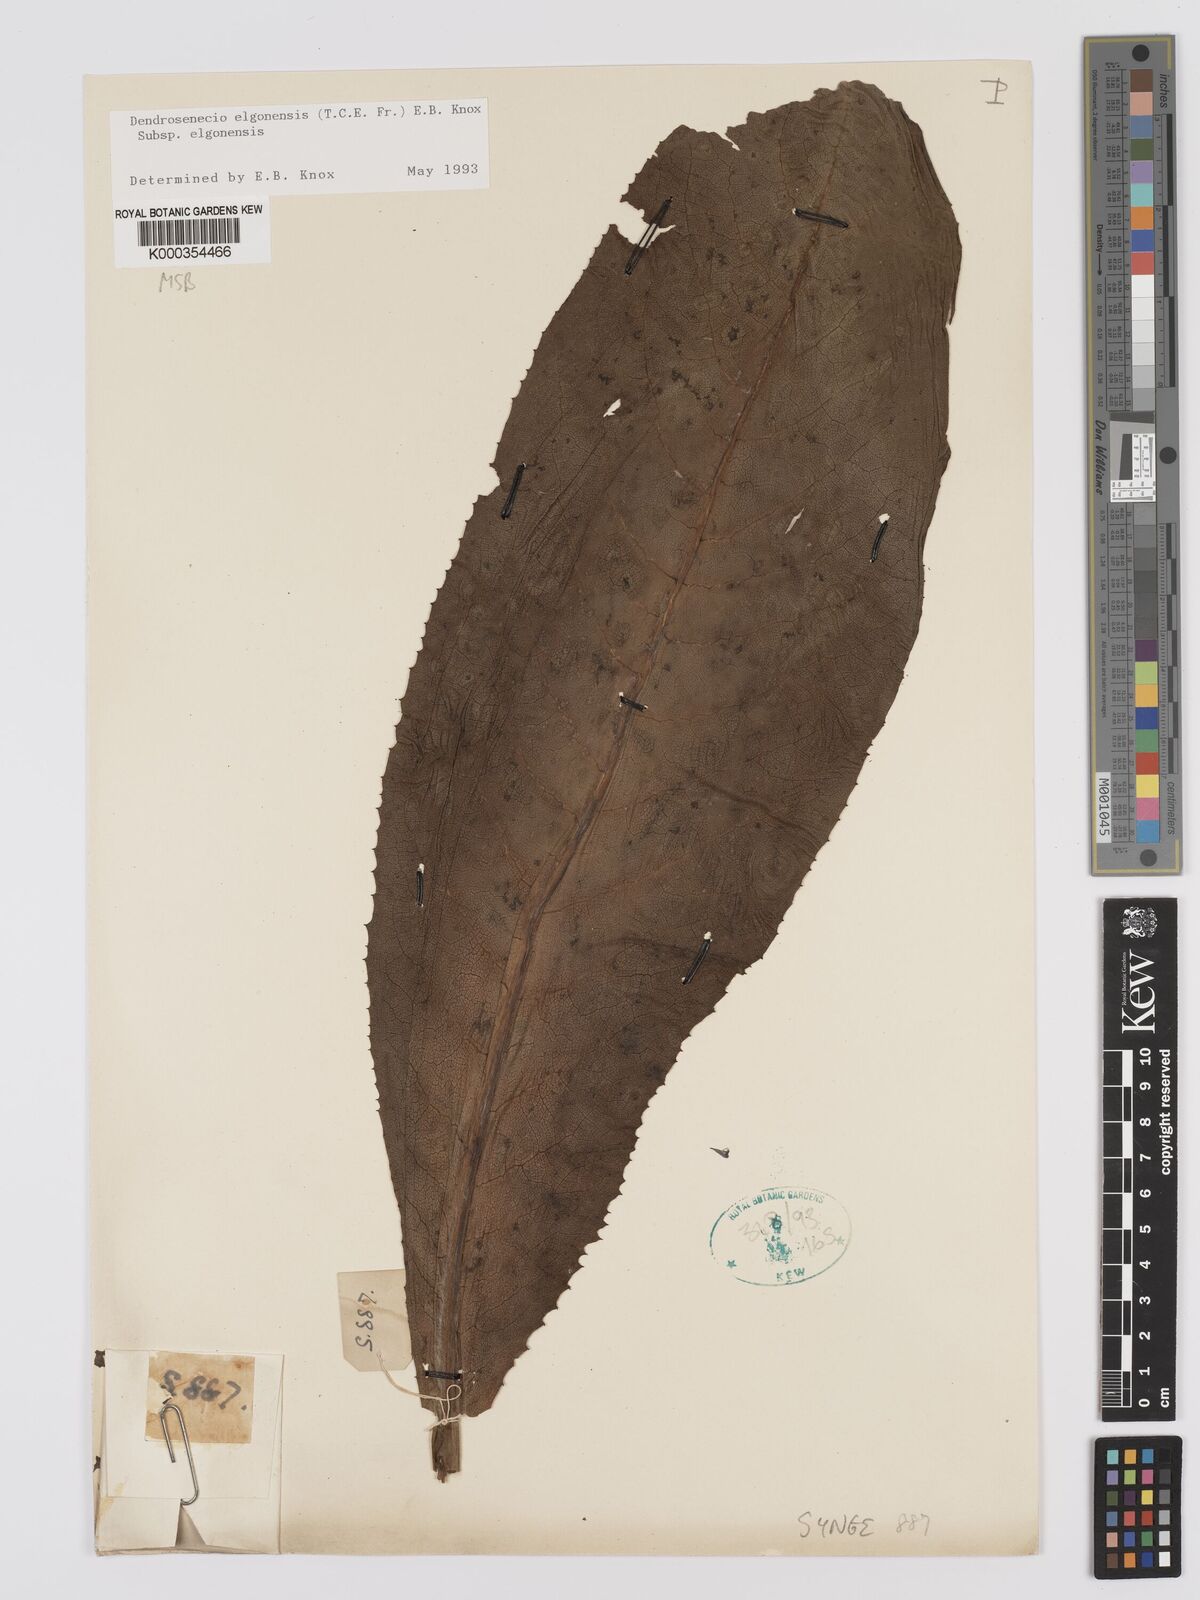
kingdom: Plantae
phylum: Tracheophyta
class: Magnoliopsida
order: Asterales
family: Asteraceae
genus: Dendrosenecio
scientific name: Dendrosenecio elgonensis
